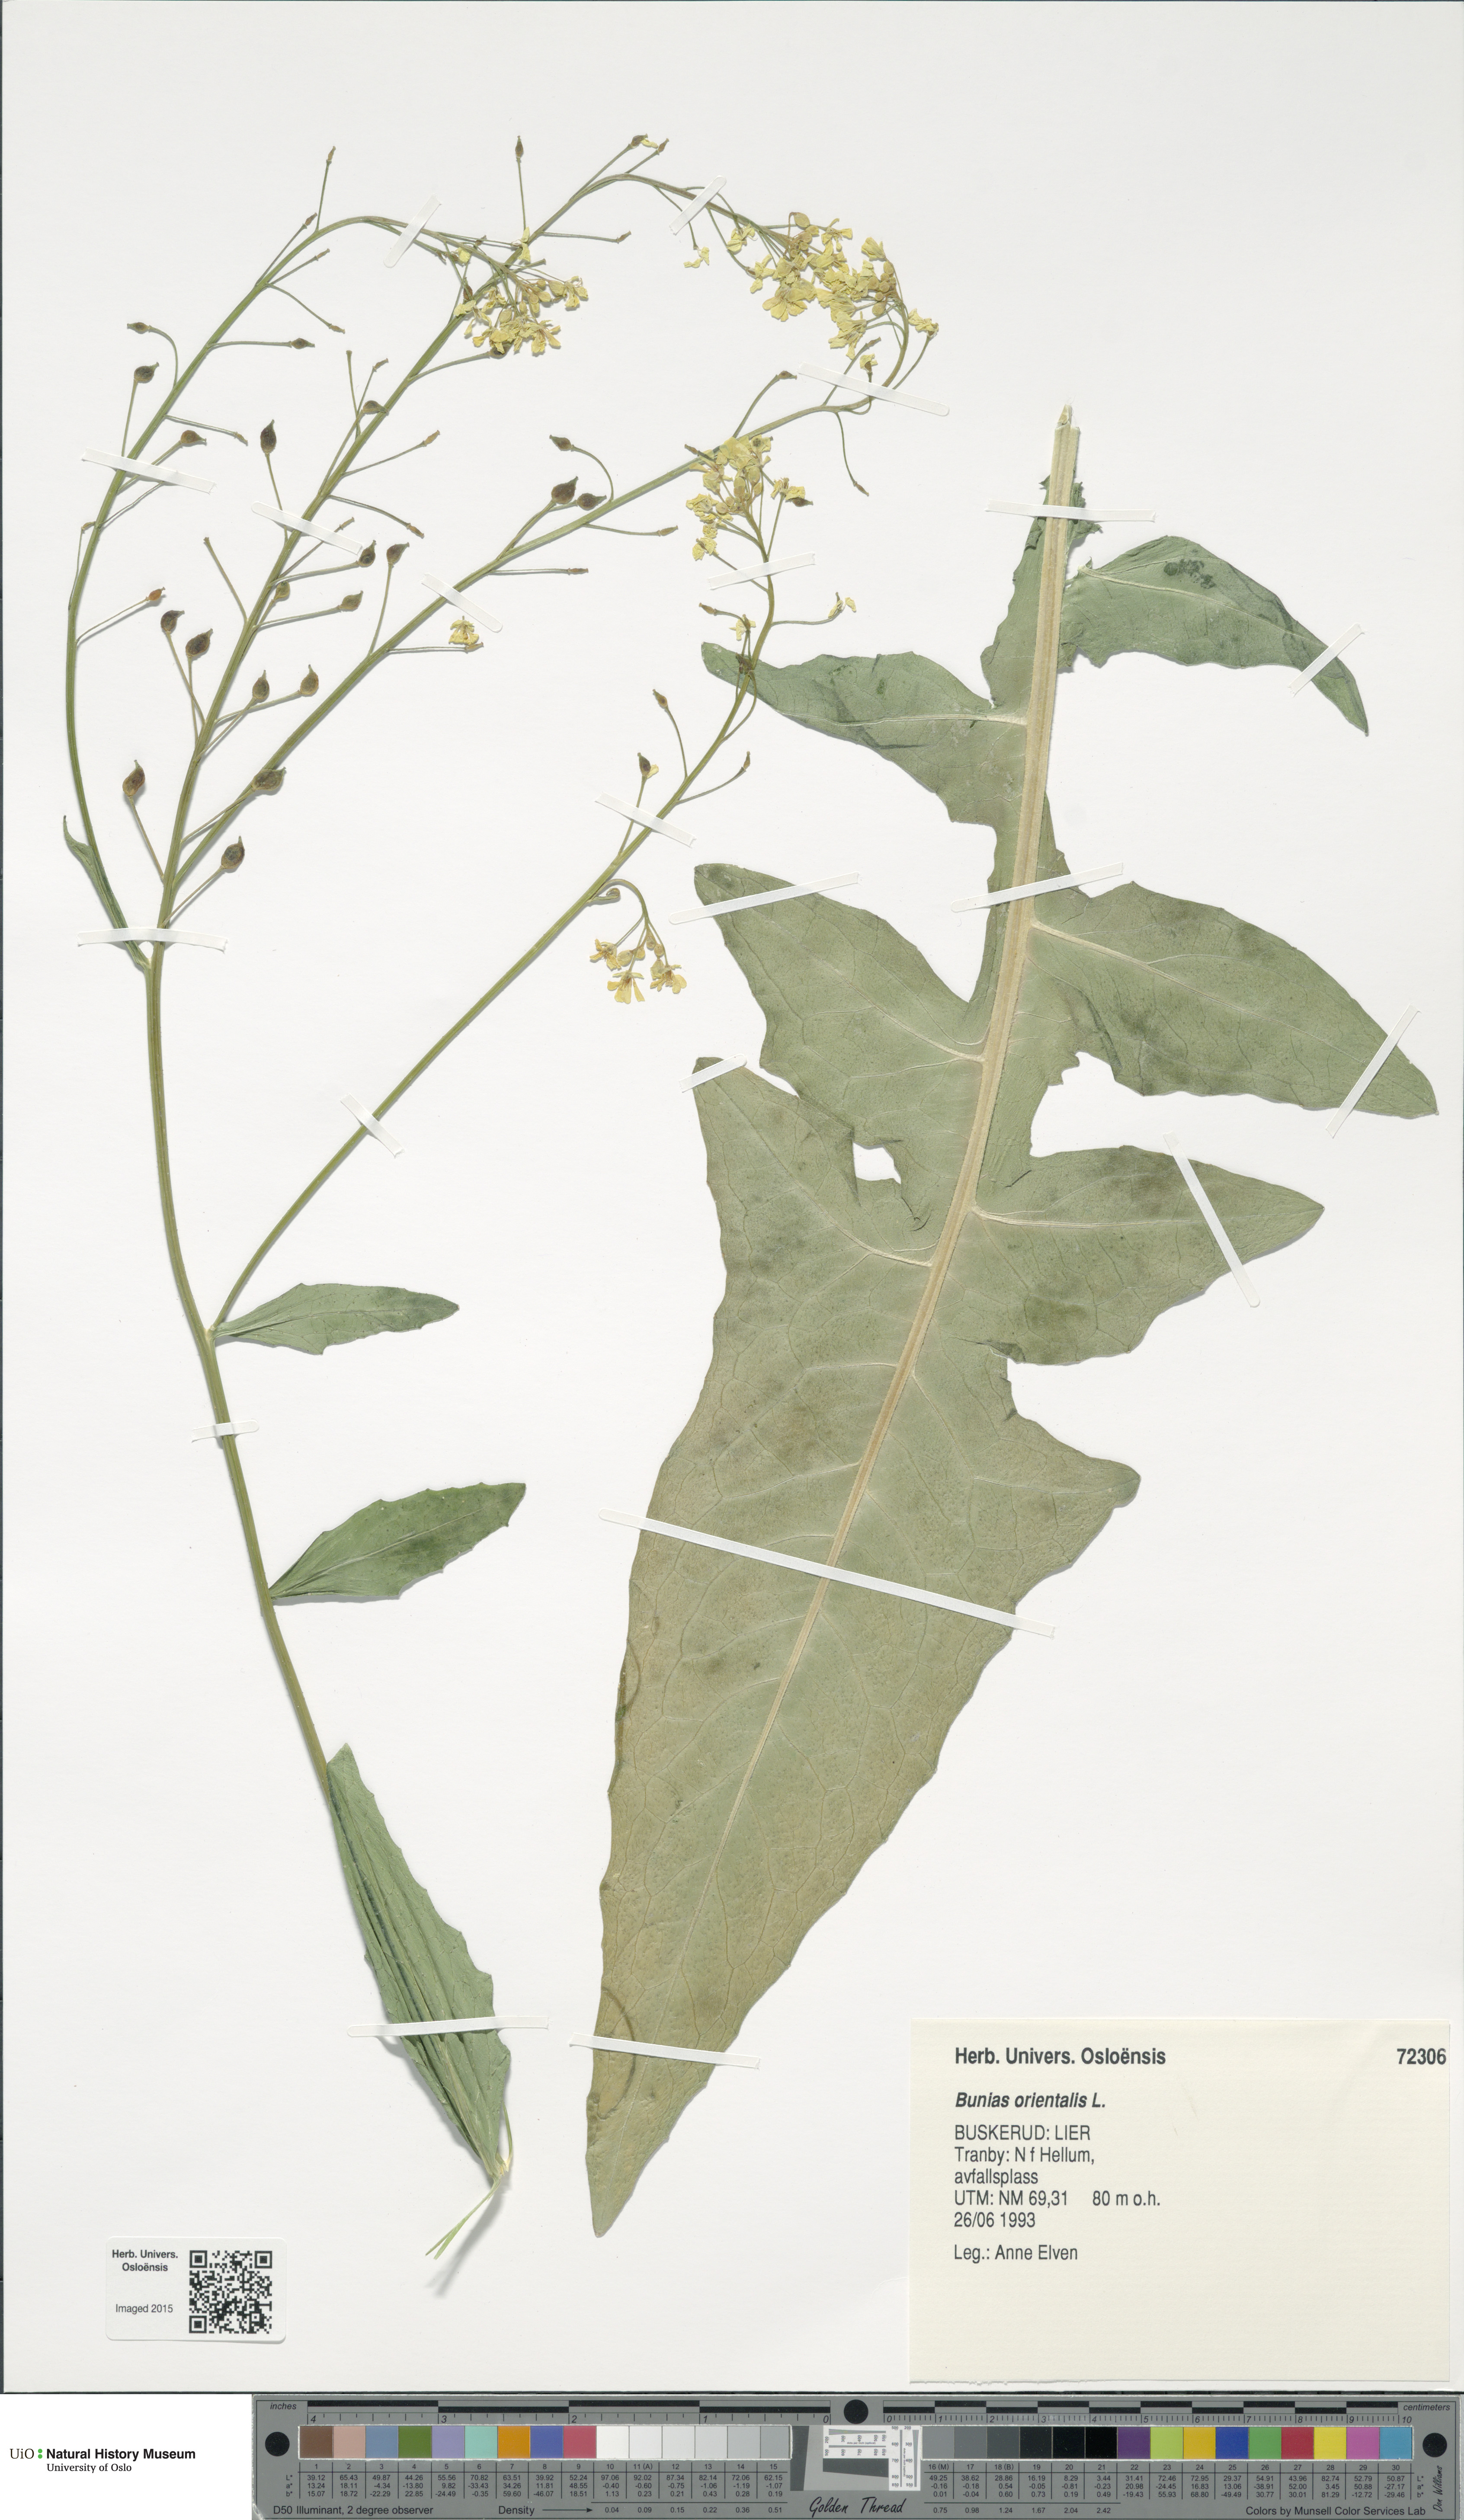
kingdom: Plantae
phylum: Tracheophyta
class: Magnoliopsida
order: Brassicales
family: Brassicaceae
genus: Bunias
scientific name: Bunias orientalis
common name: Warty-cabbage
